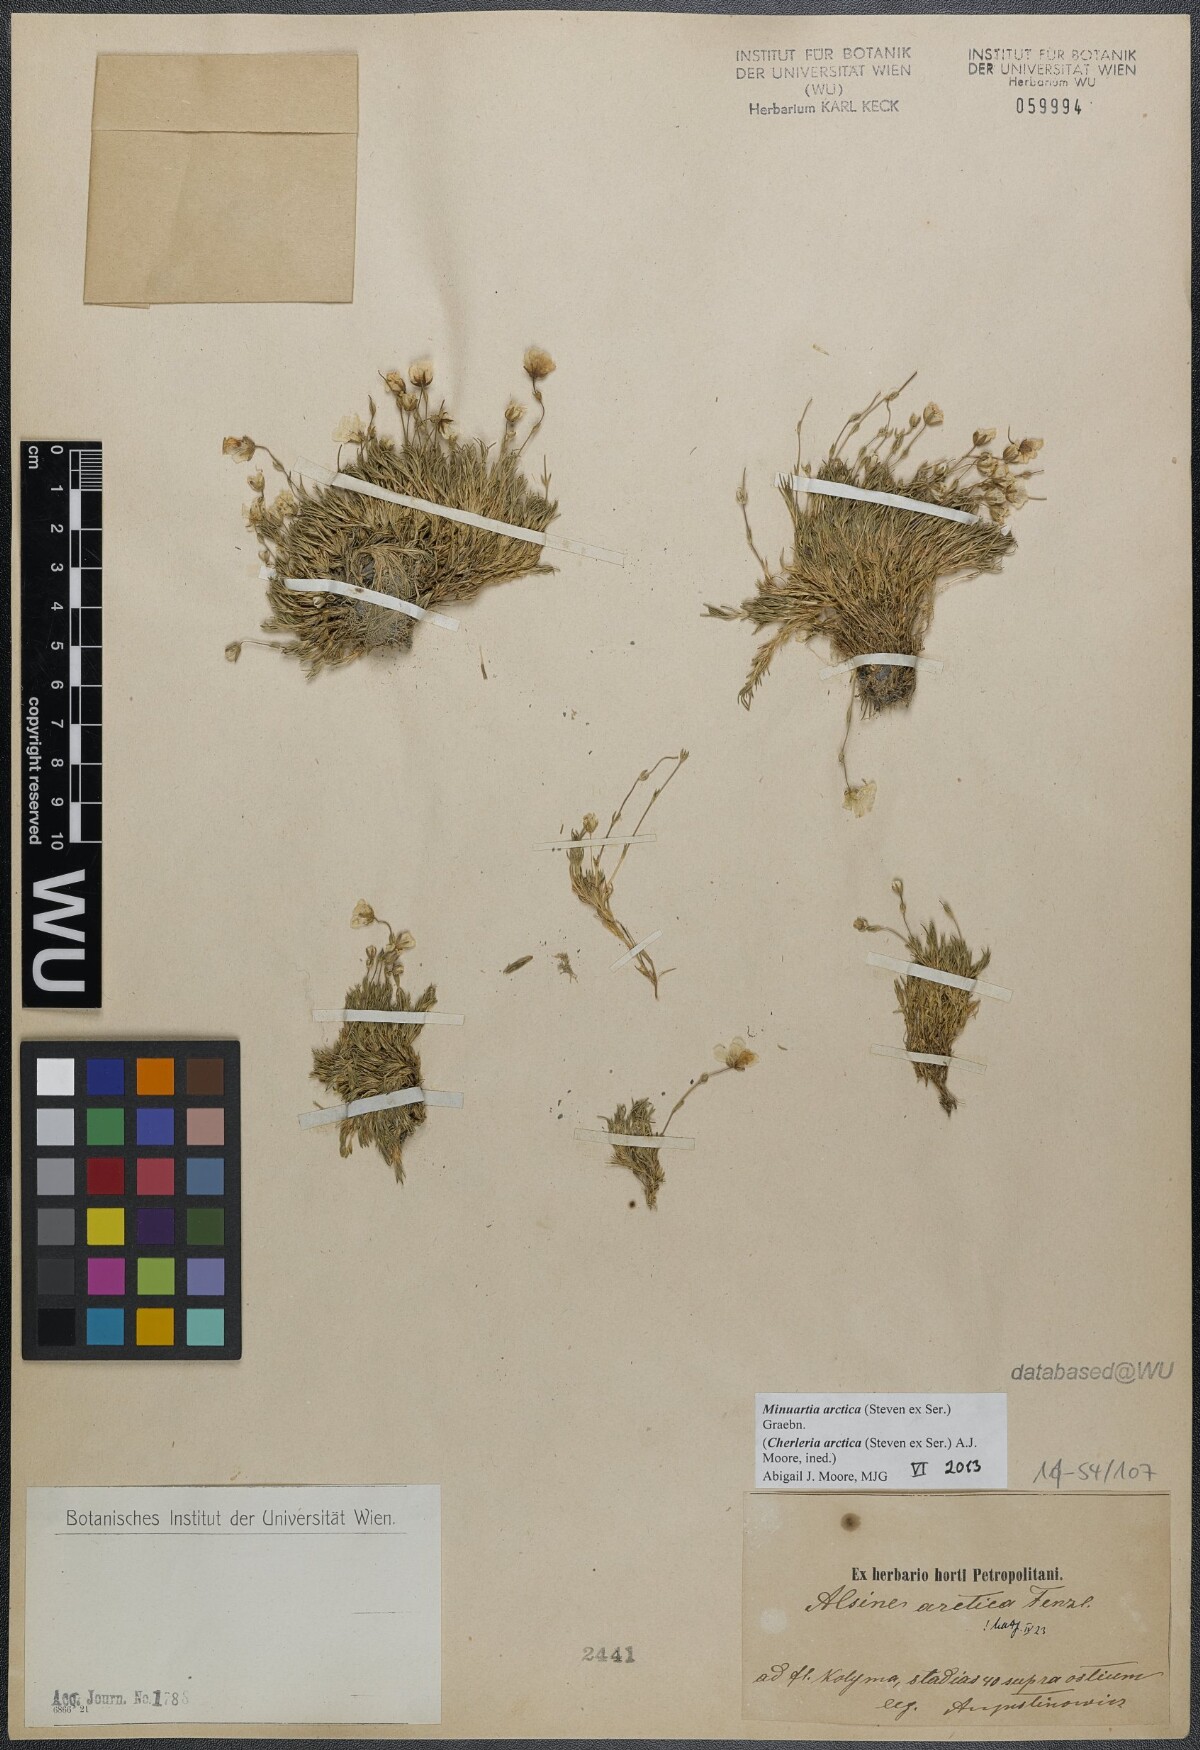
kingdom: Plantae
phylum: Tracheophyta
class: Magnoliopsida
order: Caryophyllales
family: Caryophyllaceae
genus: Cherleria
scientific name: Cherleria arctica
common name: Arctic sandwort
